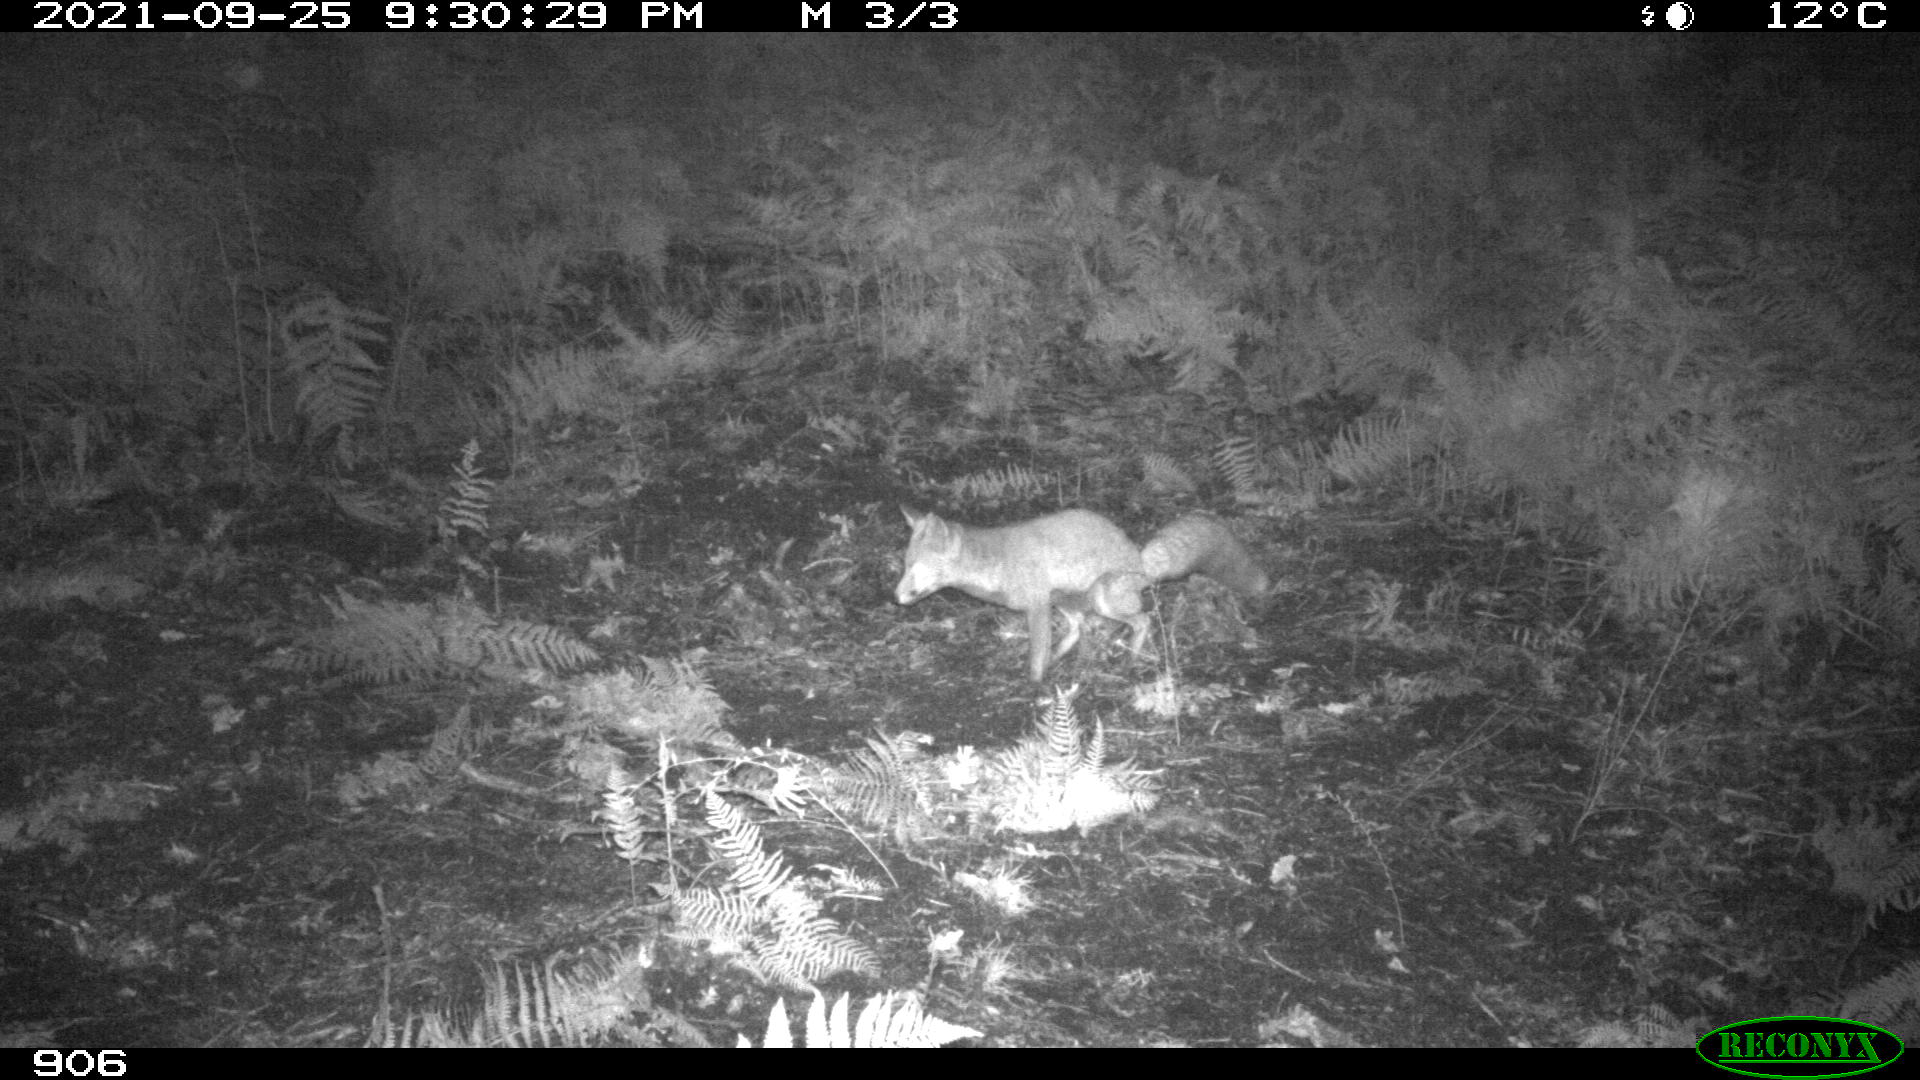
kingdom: Animalia
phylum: Chordata
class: Mammalia
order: Carnivora
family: Canidae
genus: Vulpes
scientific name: Vulpes vulpes
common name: Red fox
